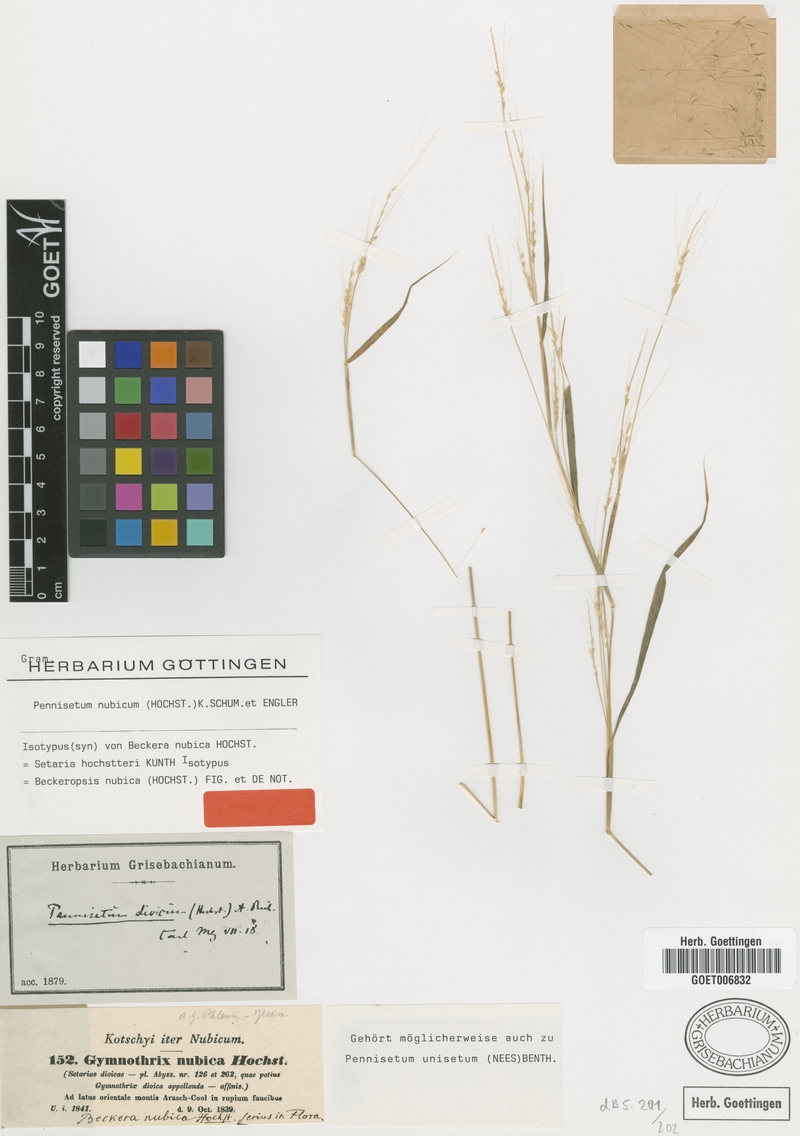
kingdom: Plantae
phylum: Tracheophyta
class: Liliopsida
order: Poales
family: Poaceae
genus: Cenchrus
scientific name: Cenchrus nubicus
